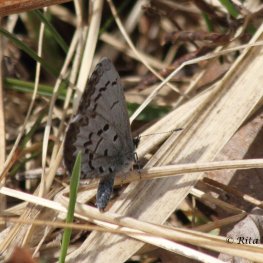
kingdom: Animalia
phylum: Arthropoda
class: Insecta
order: Lepidoptera
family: Lycaenidae
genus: Celastrina
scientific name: Celastrina lucia
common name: Northern Spring Azure
